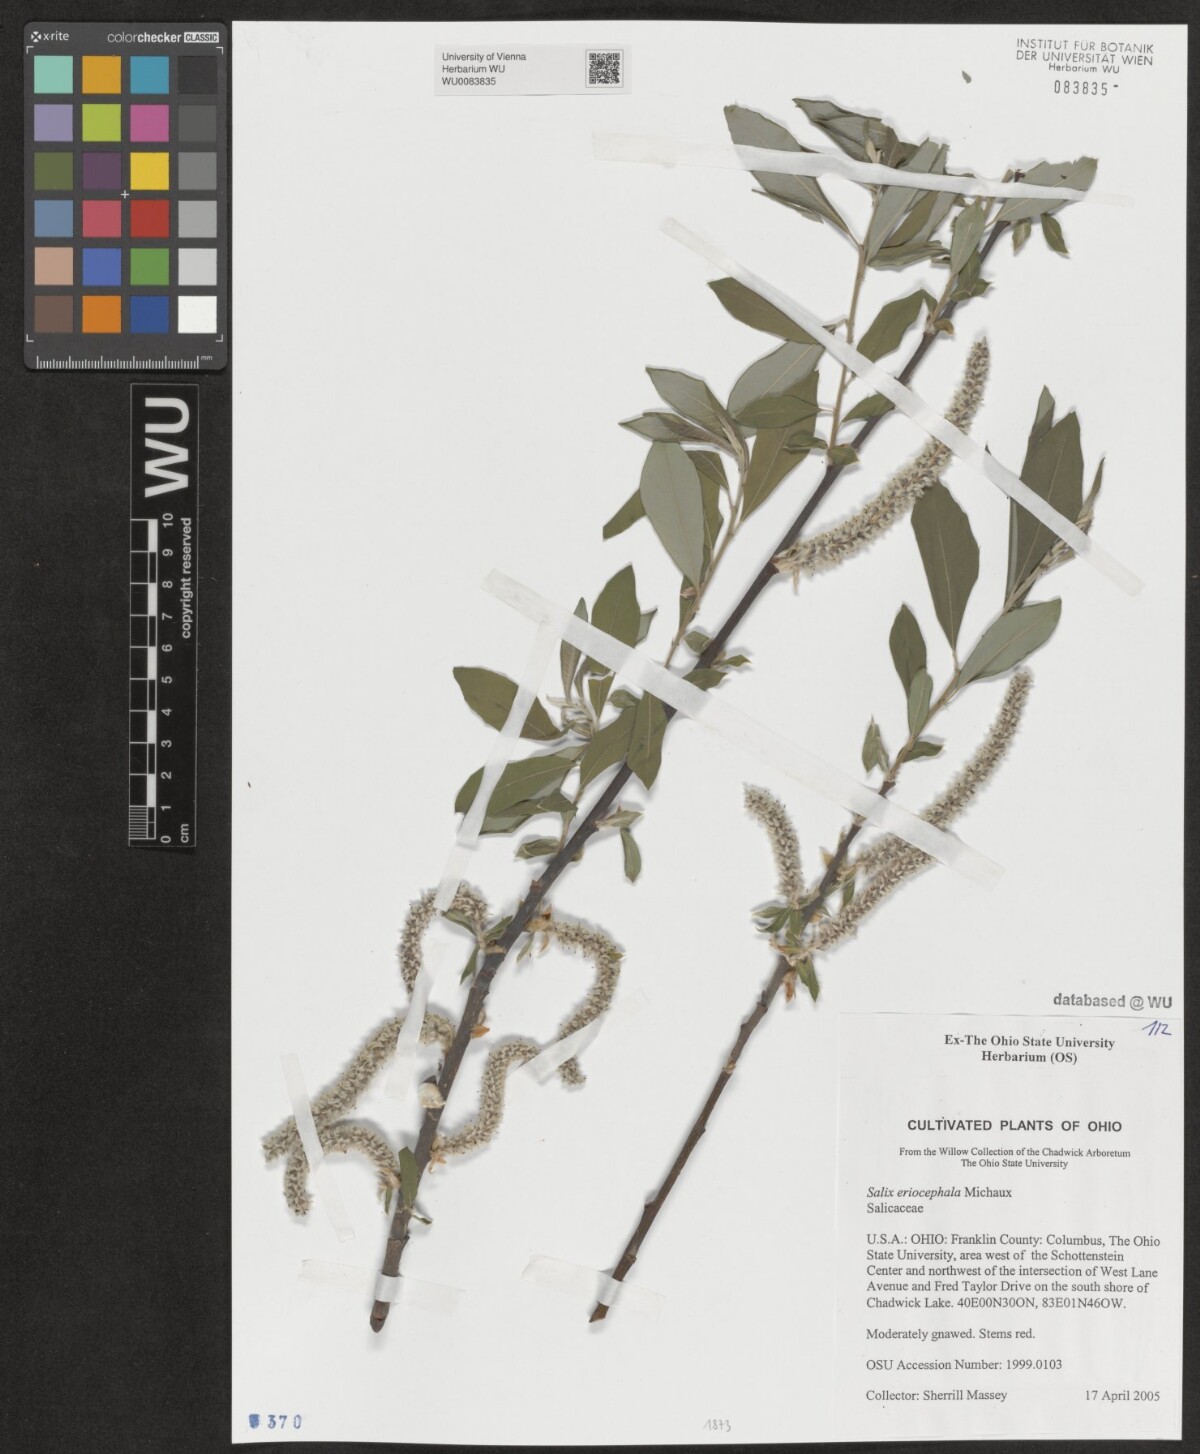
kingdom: Plantae
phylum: Tracheophyta
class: Magnoliopsida
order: Malpighiales
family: Salicaceae
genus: Salix
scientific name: Salix eriocephala
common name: Heart-leaved willow
